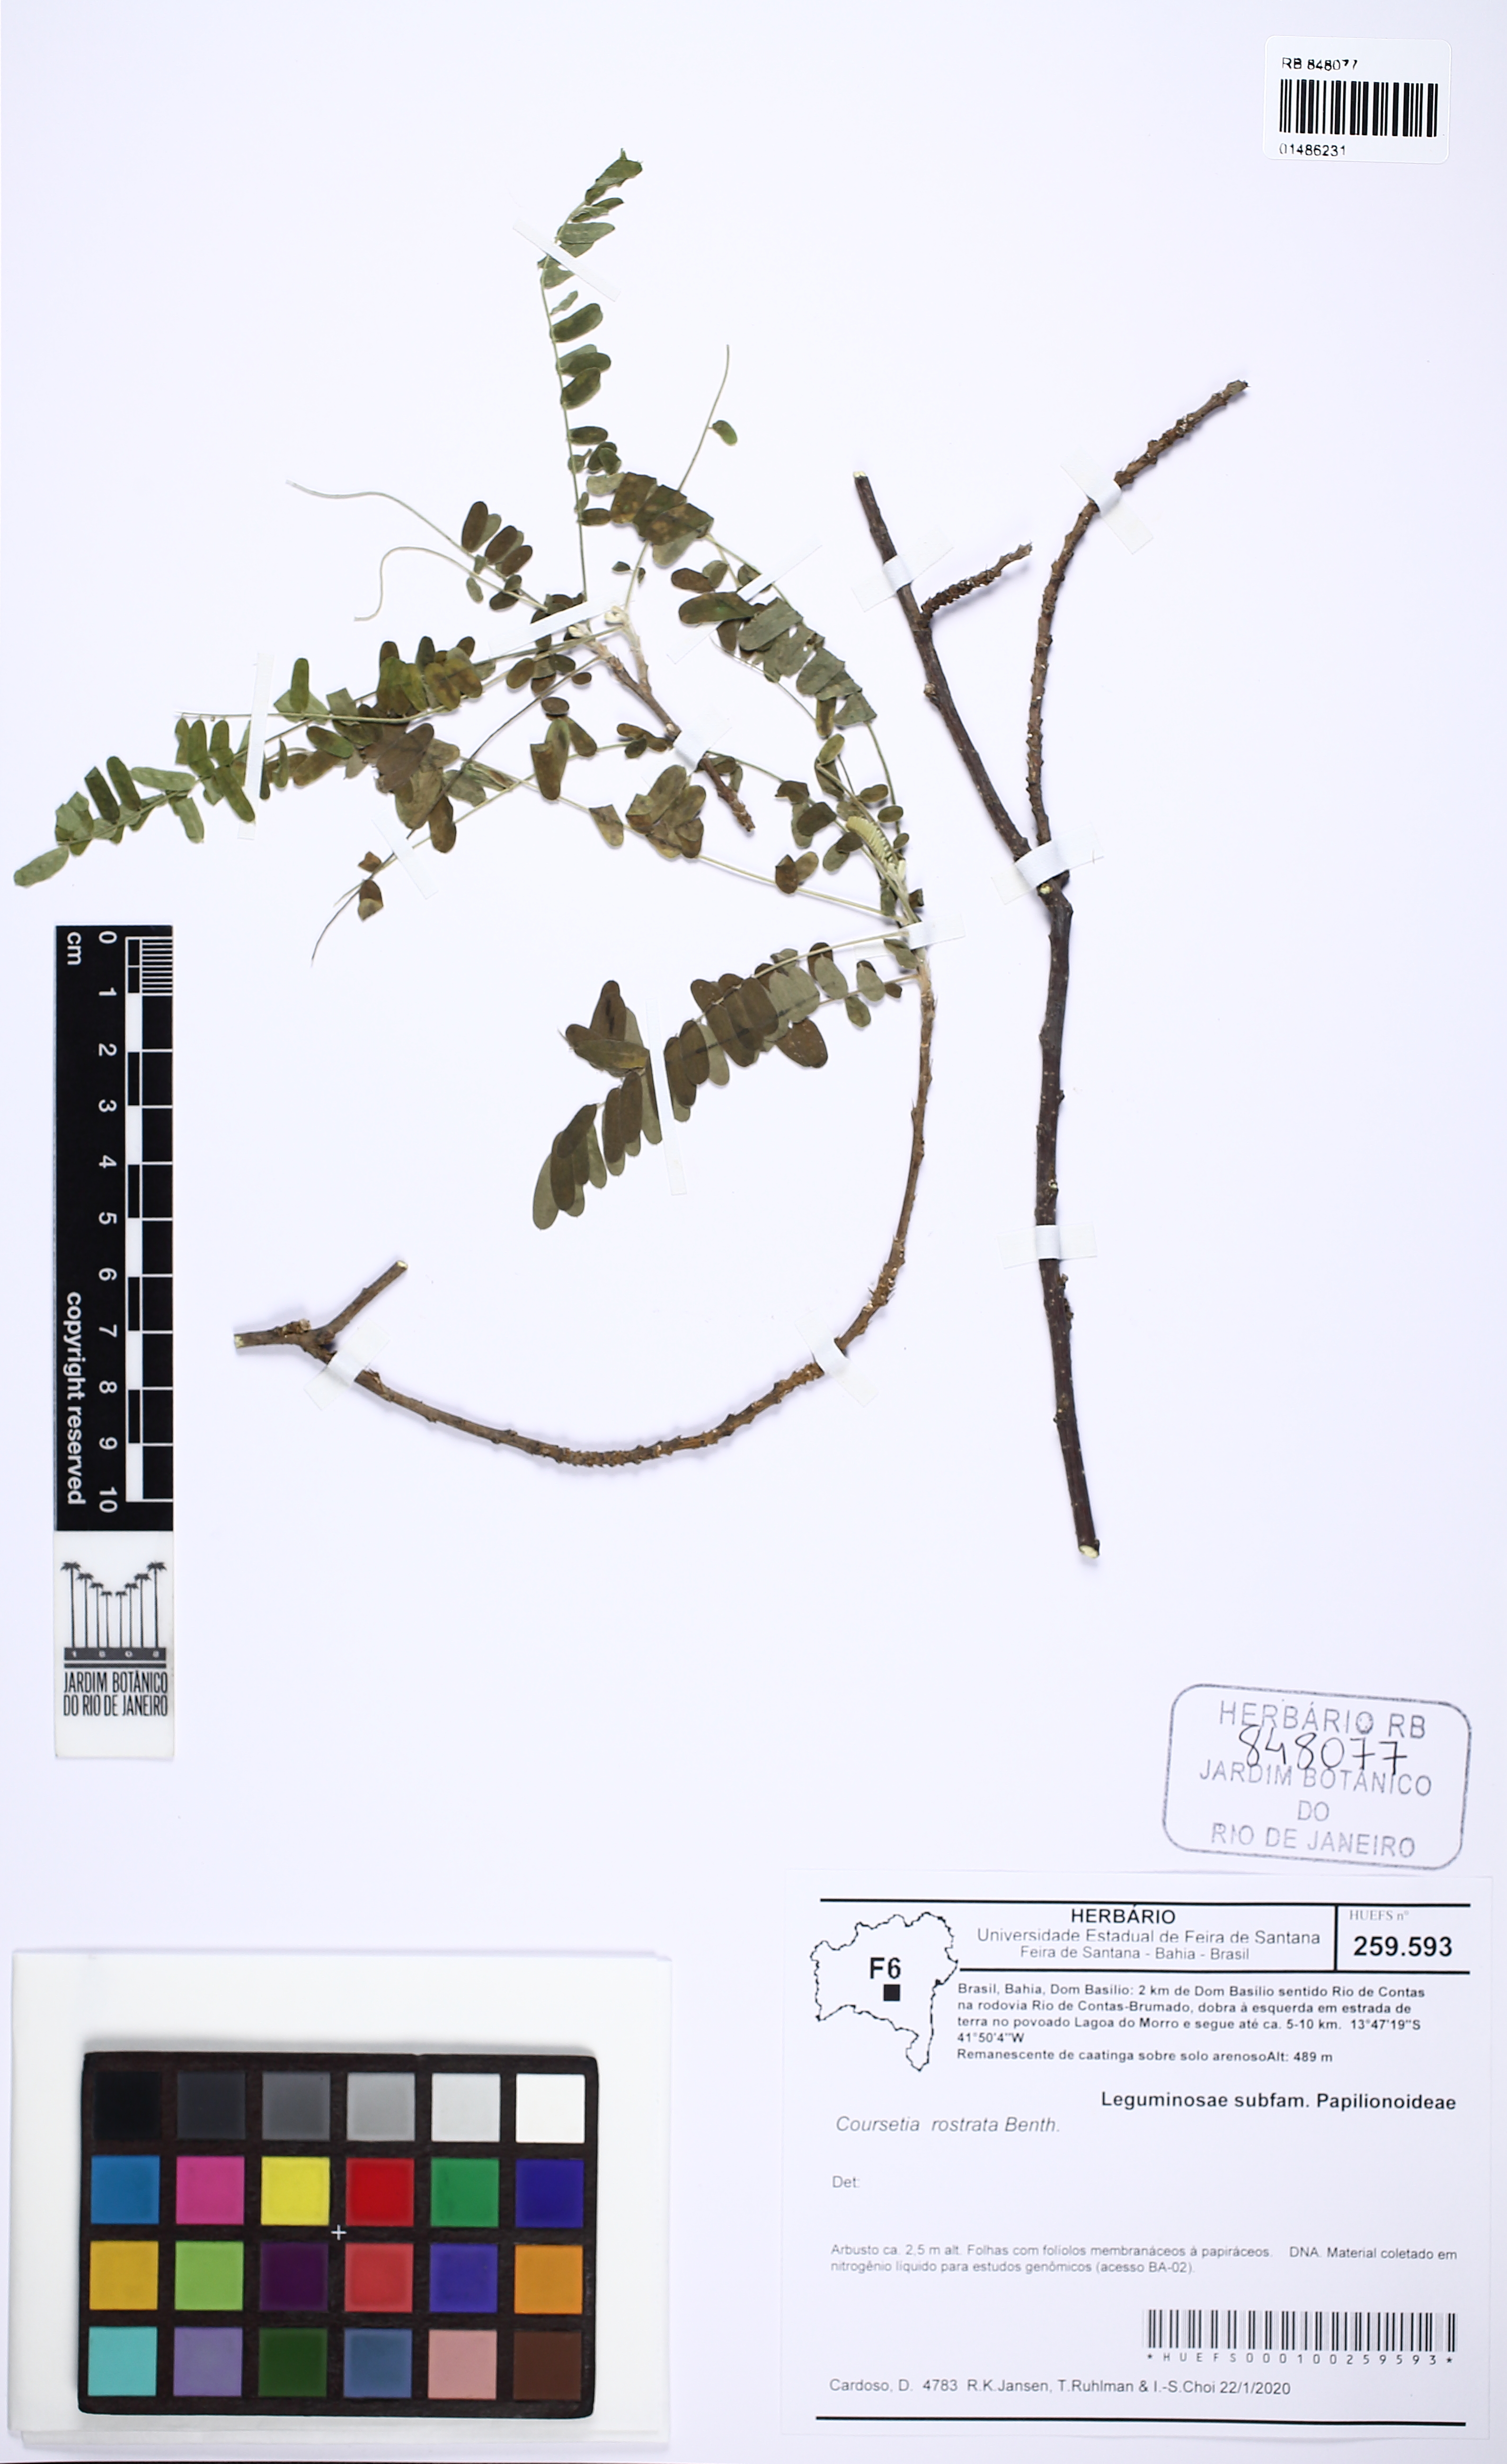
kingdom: Plantae
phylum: Tracheophyta
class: Magnoliopsida
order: Fabales
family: Fabaceae
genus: Coursetia
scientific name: Coursetia rostrata
